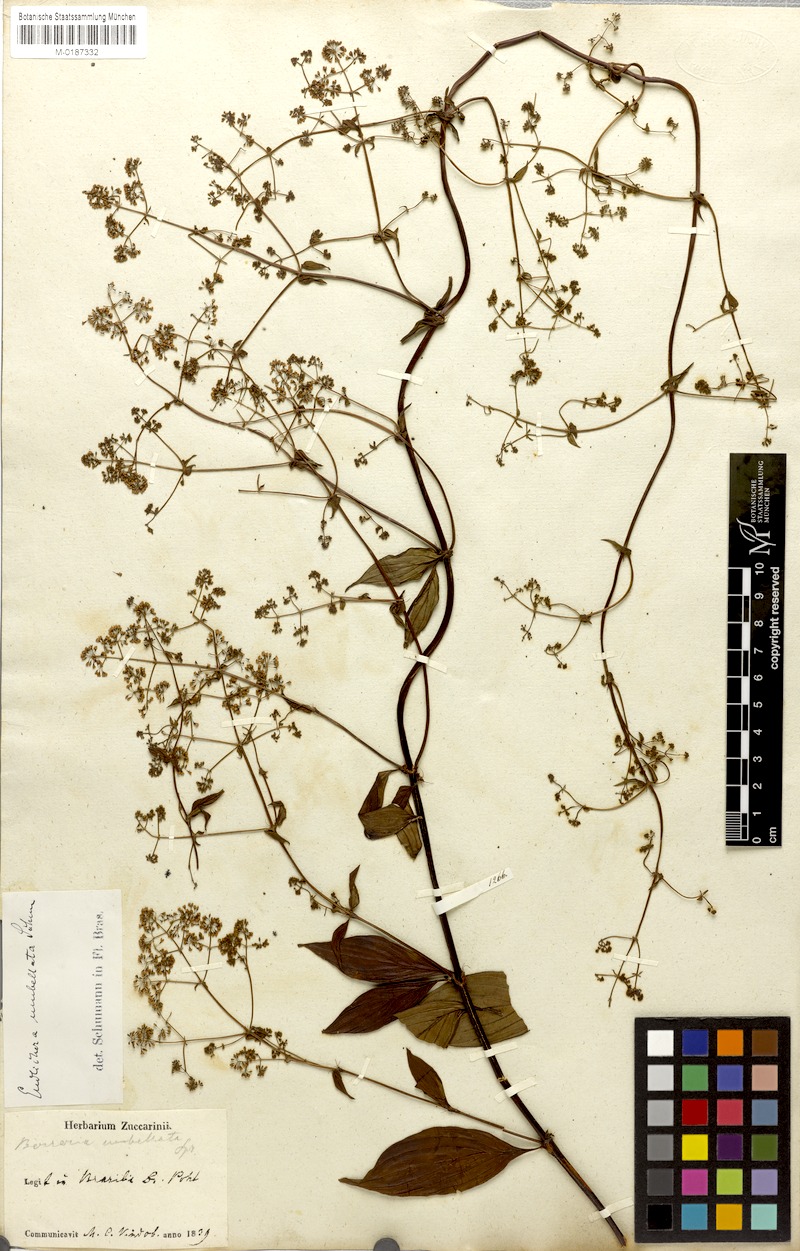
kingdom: Plantae
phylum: Tracheophyta
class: Magnoliopsida
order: Gentianales
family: Rubiaceae
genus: Emmeorhiza
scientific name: Emmeorhiza umbellata
